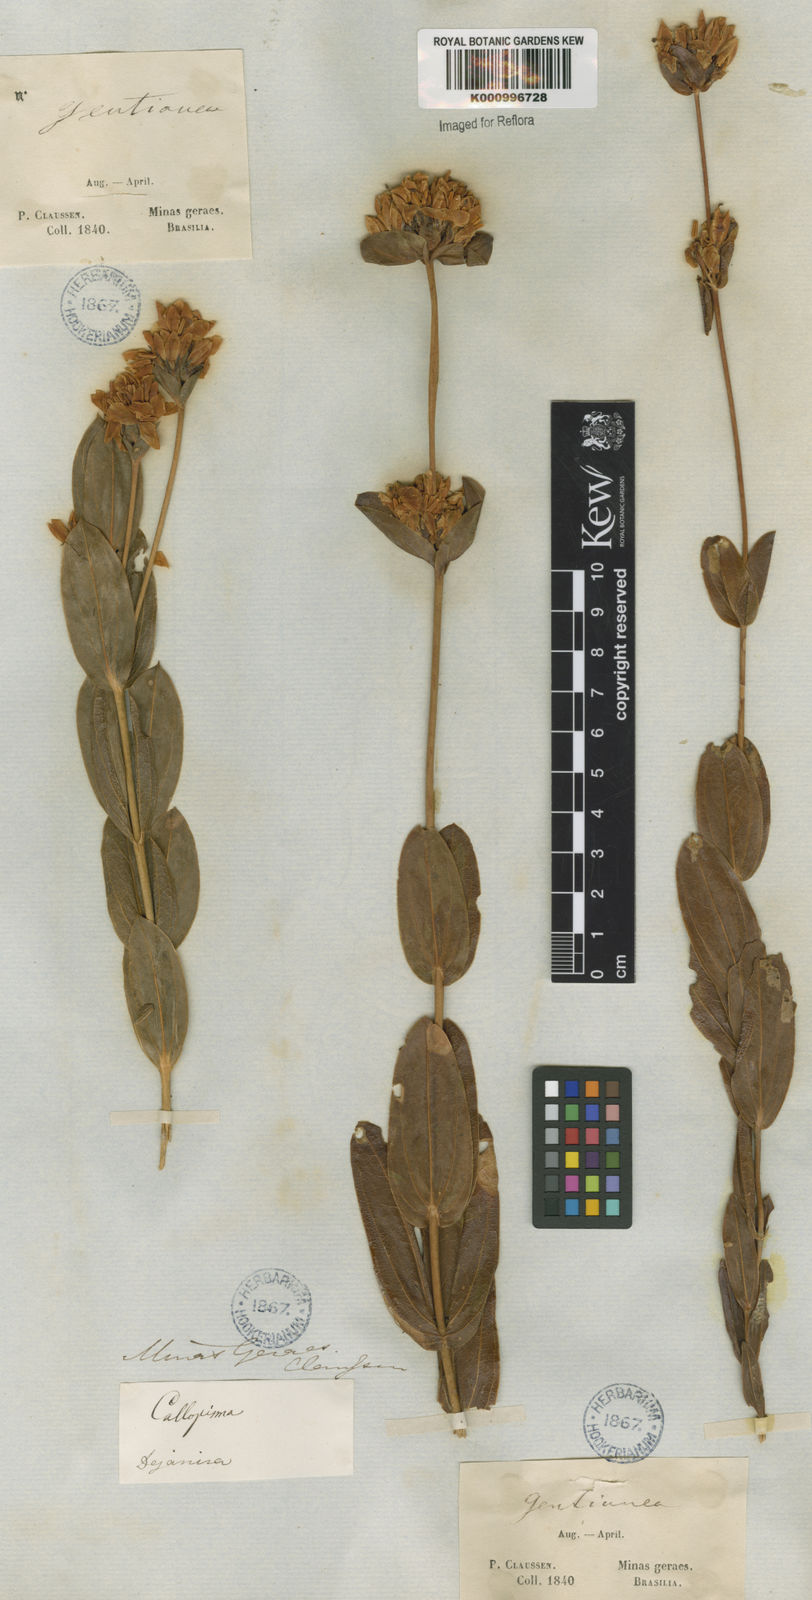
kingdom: Plantae
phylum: Tracheophyta
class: Magnoliopsida
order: Gentianales
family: Gentianaceae
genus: Deianira
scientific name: Deianira nervosa
